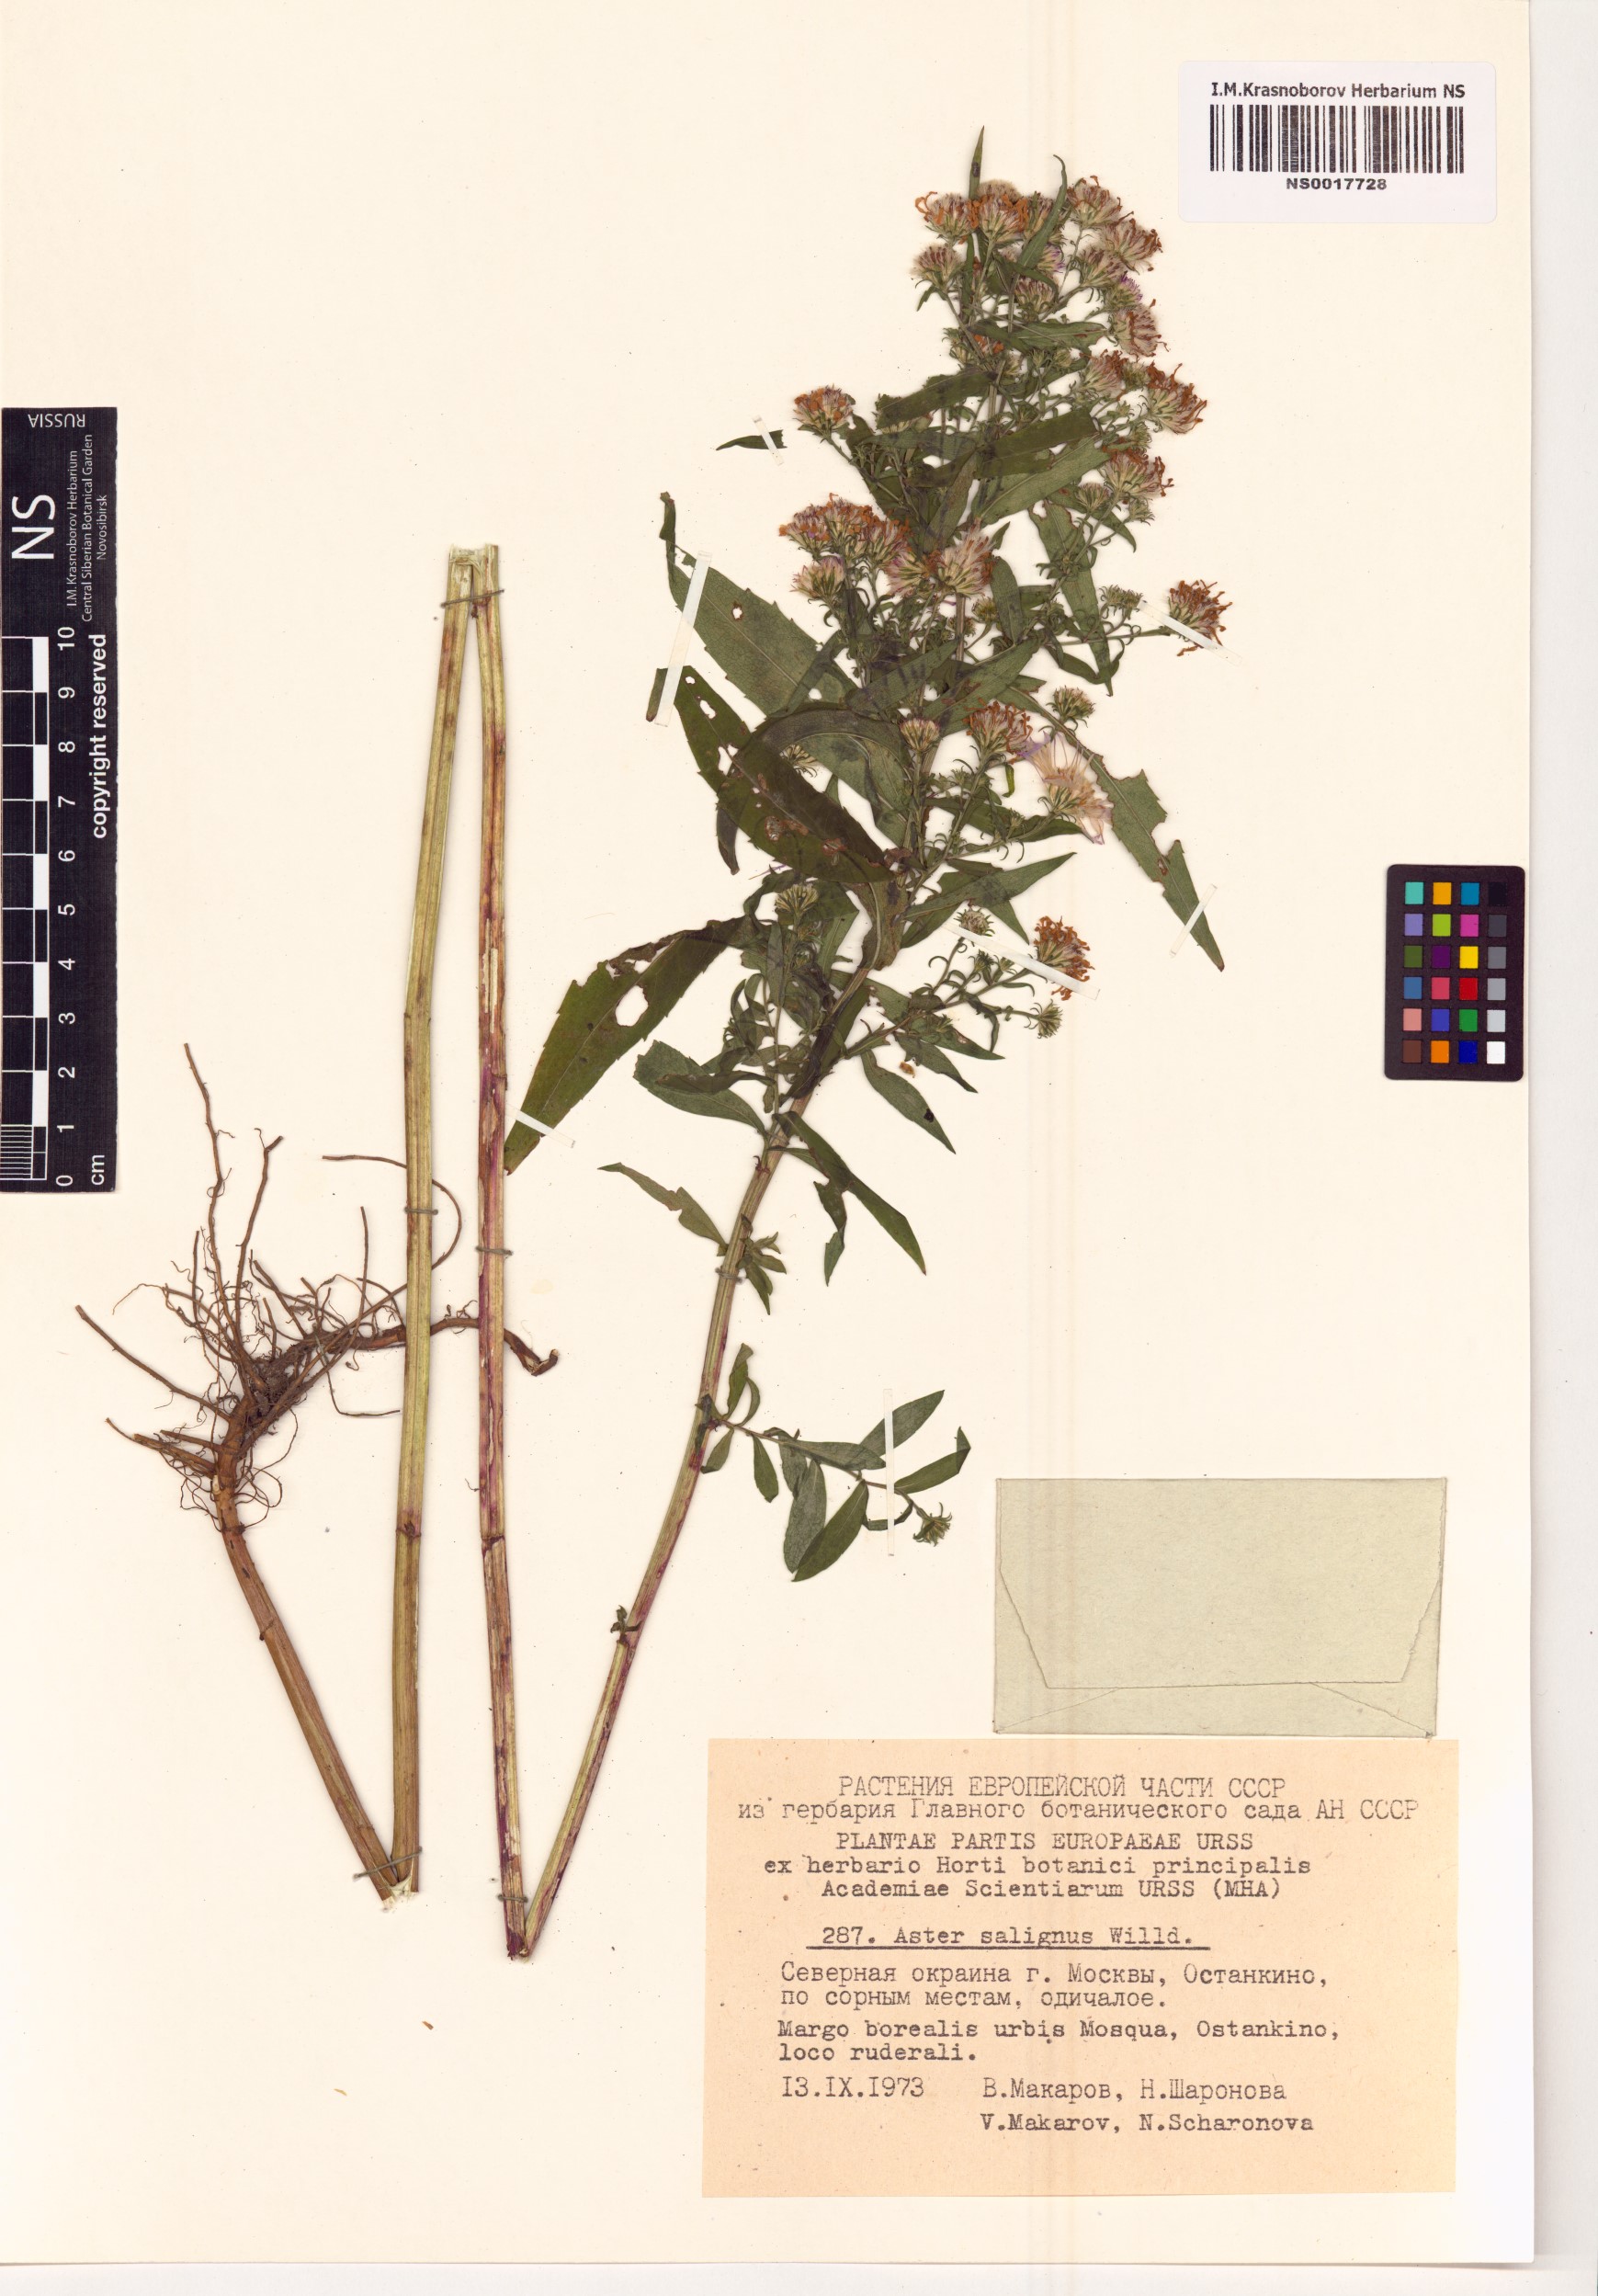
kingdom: Plantae
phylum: Tracheophyta
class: Magnoliopsida
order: Asterales
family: Asteraceae
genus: Symphyotrichum
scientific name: Symphyotrichum salignum
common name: Common michaelmas daisy
